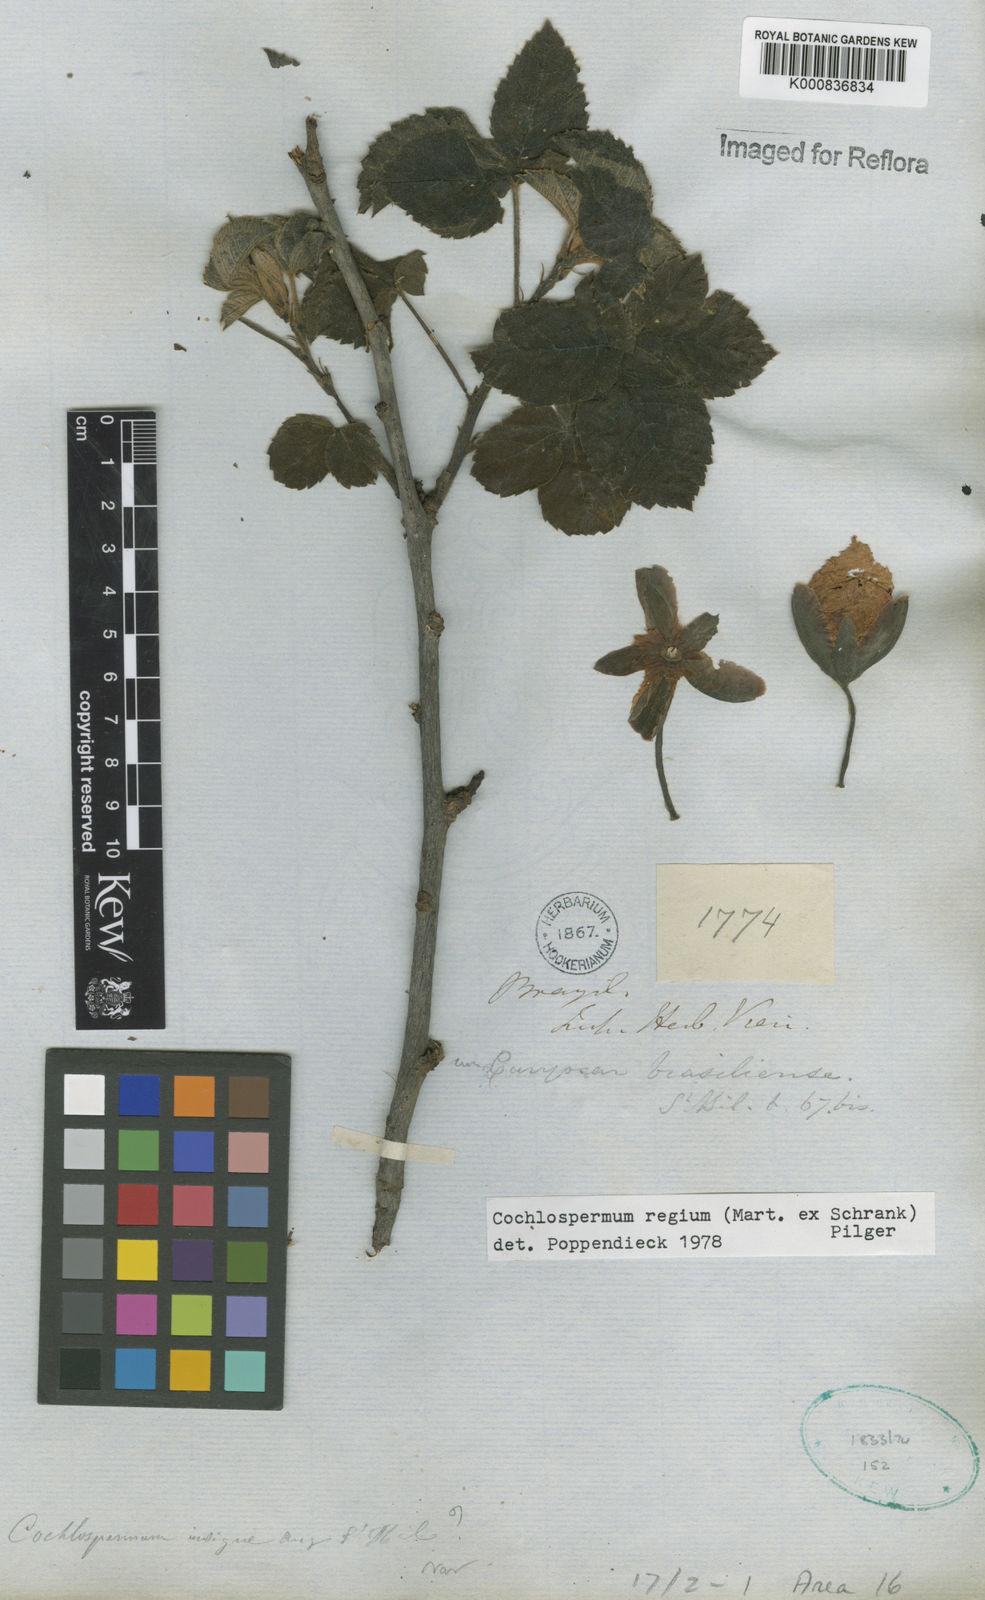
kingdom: Plantae
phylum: Tracheophyta
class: Magnoliopsida
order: Malvales
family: Cochlospermaceae
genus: Cochlospermum
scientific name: Cochlospermum regium
